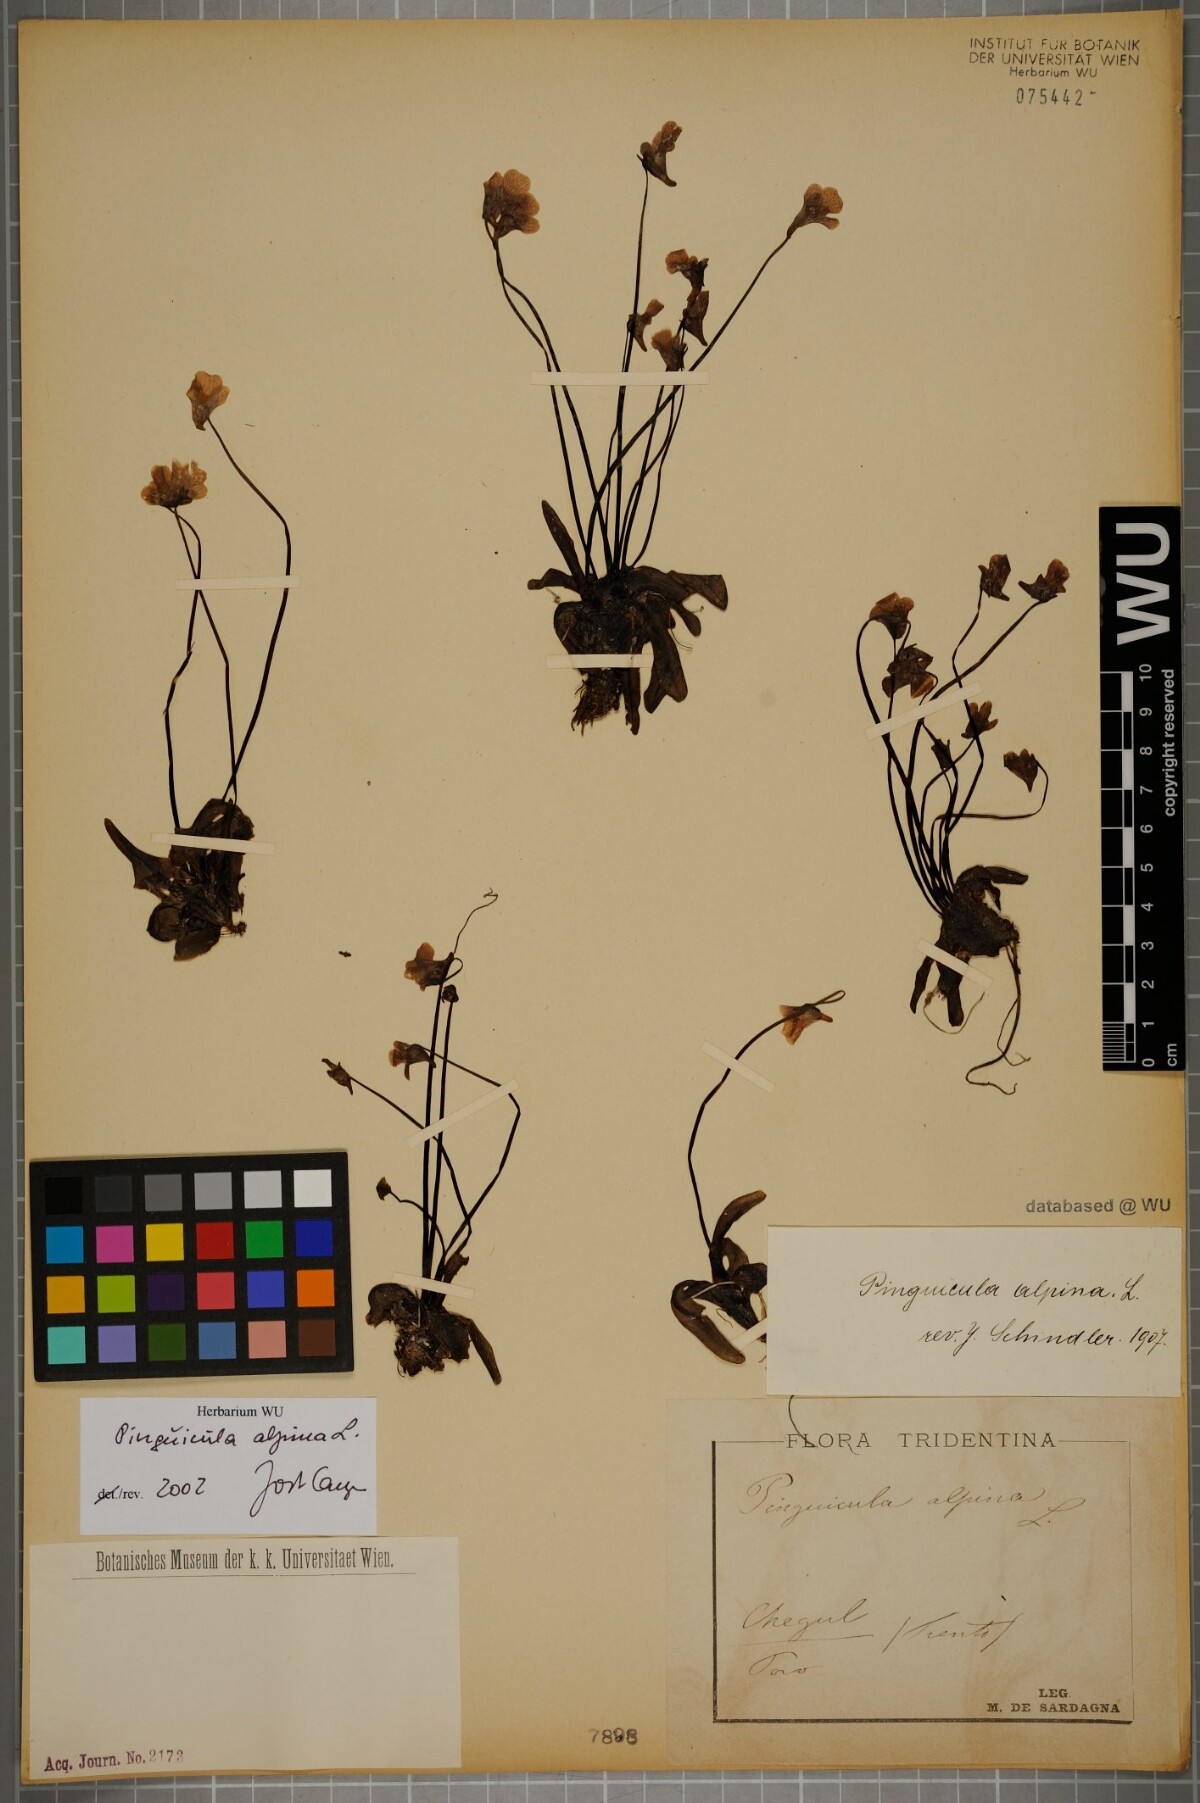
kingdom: Plantae
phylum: Tracheophyta
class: Magnoliopsida
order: Lamiales
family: Lentibulariaceae
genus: Pinguicula
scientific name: Pinguicula alpina
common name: Alpine butterwort
